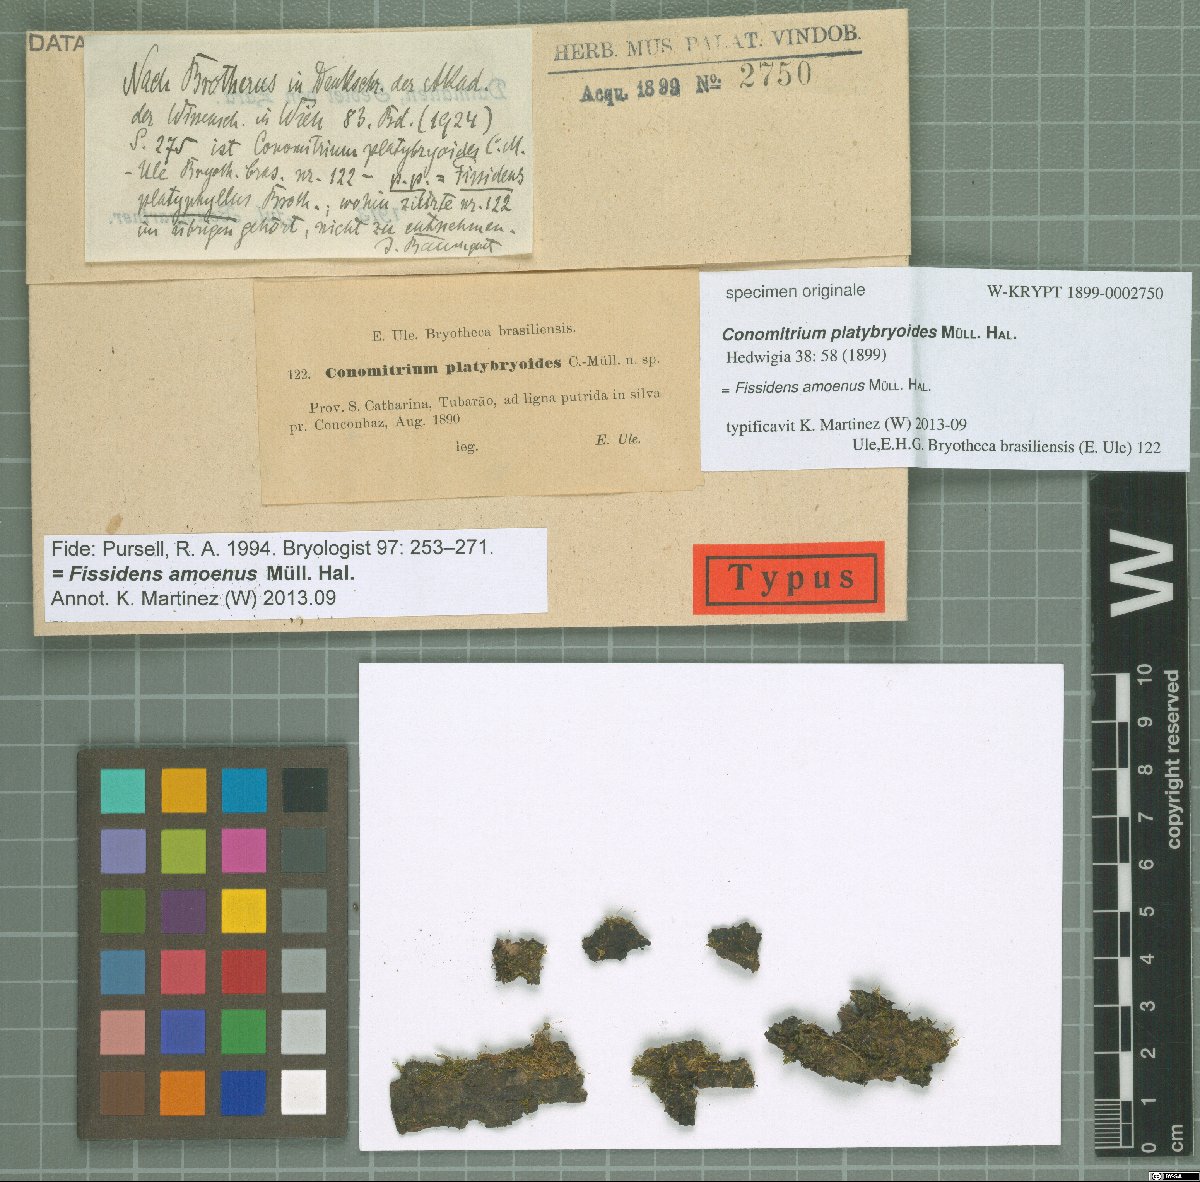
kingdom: Plantae
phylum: Bryophyta
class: Bryopsida
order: Dicranales
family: Fissidentaceae
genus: Conomitrium
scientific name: Conomitrium
